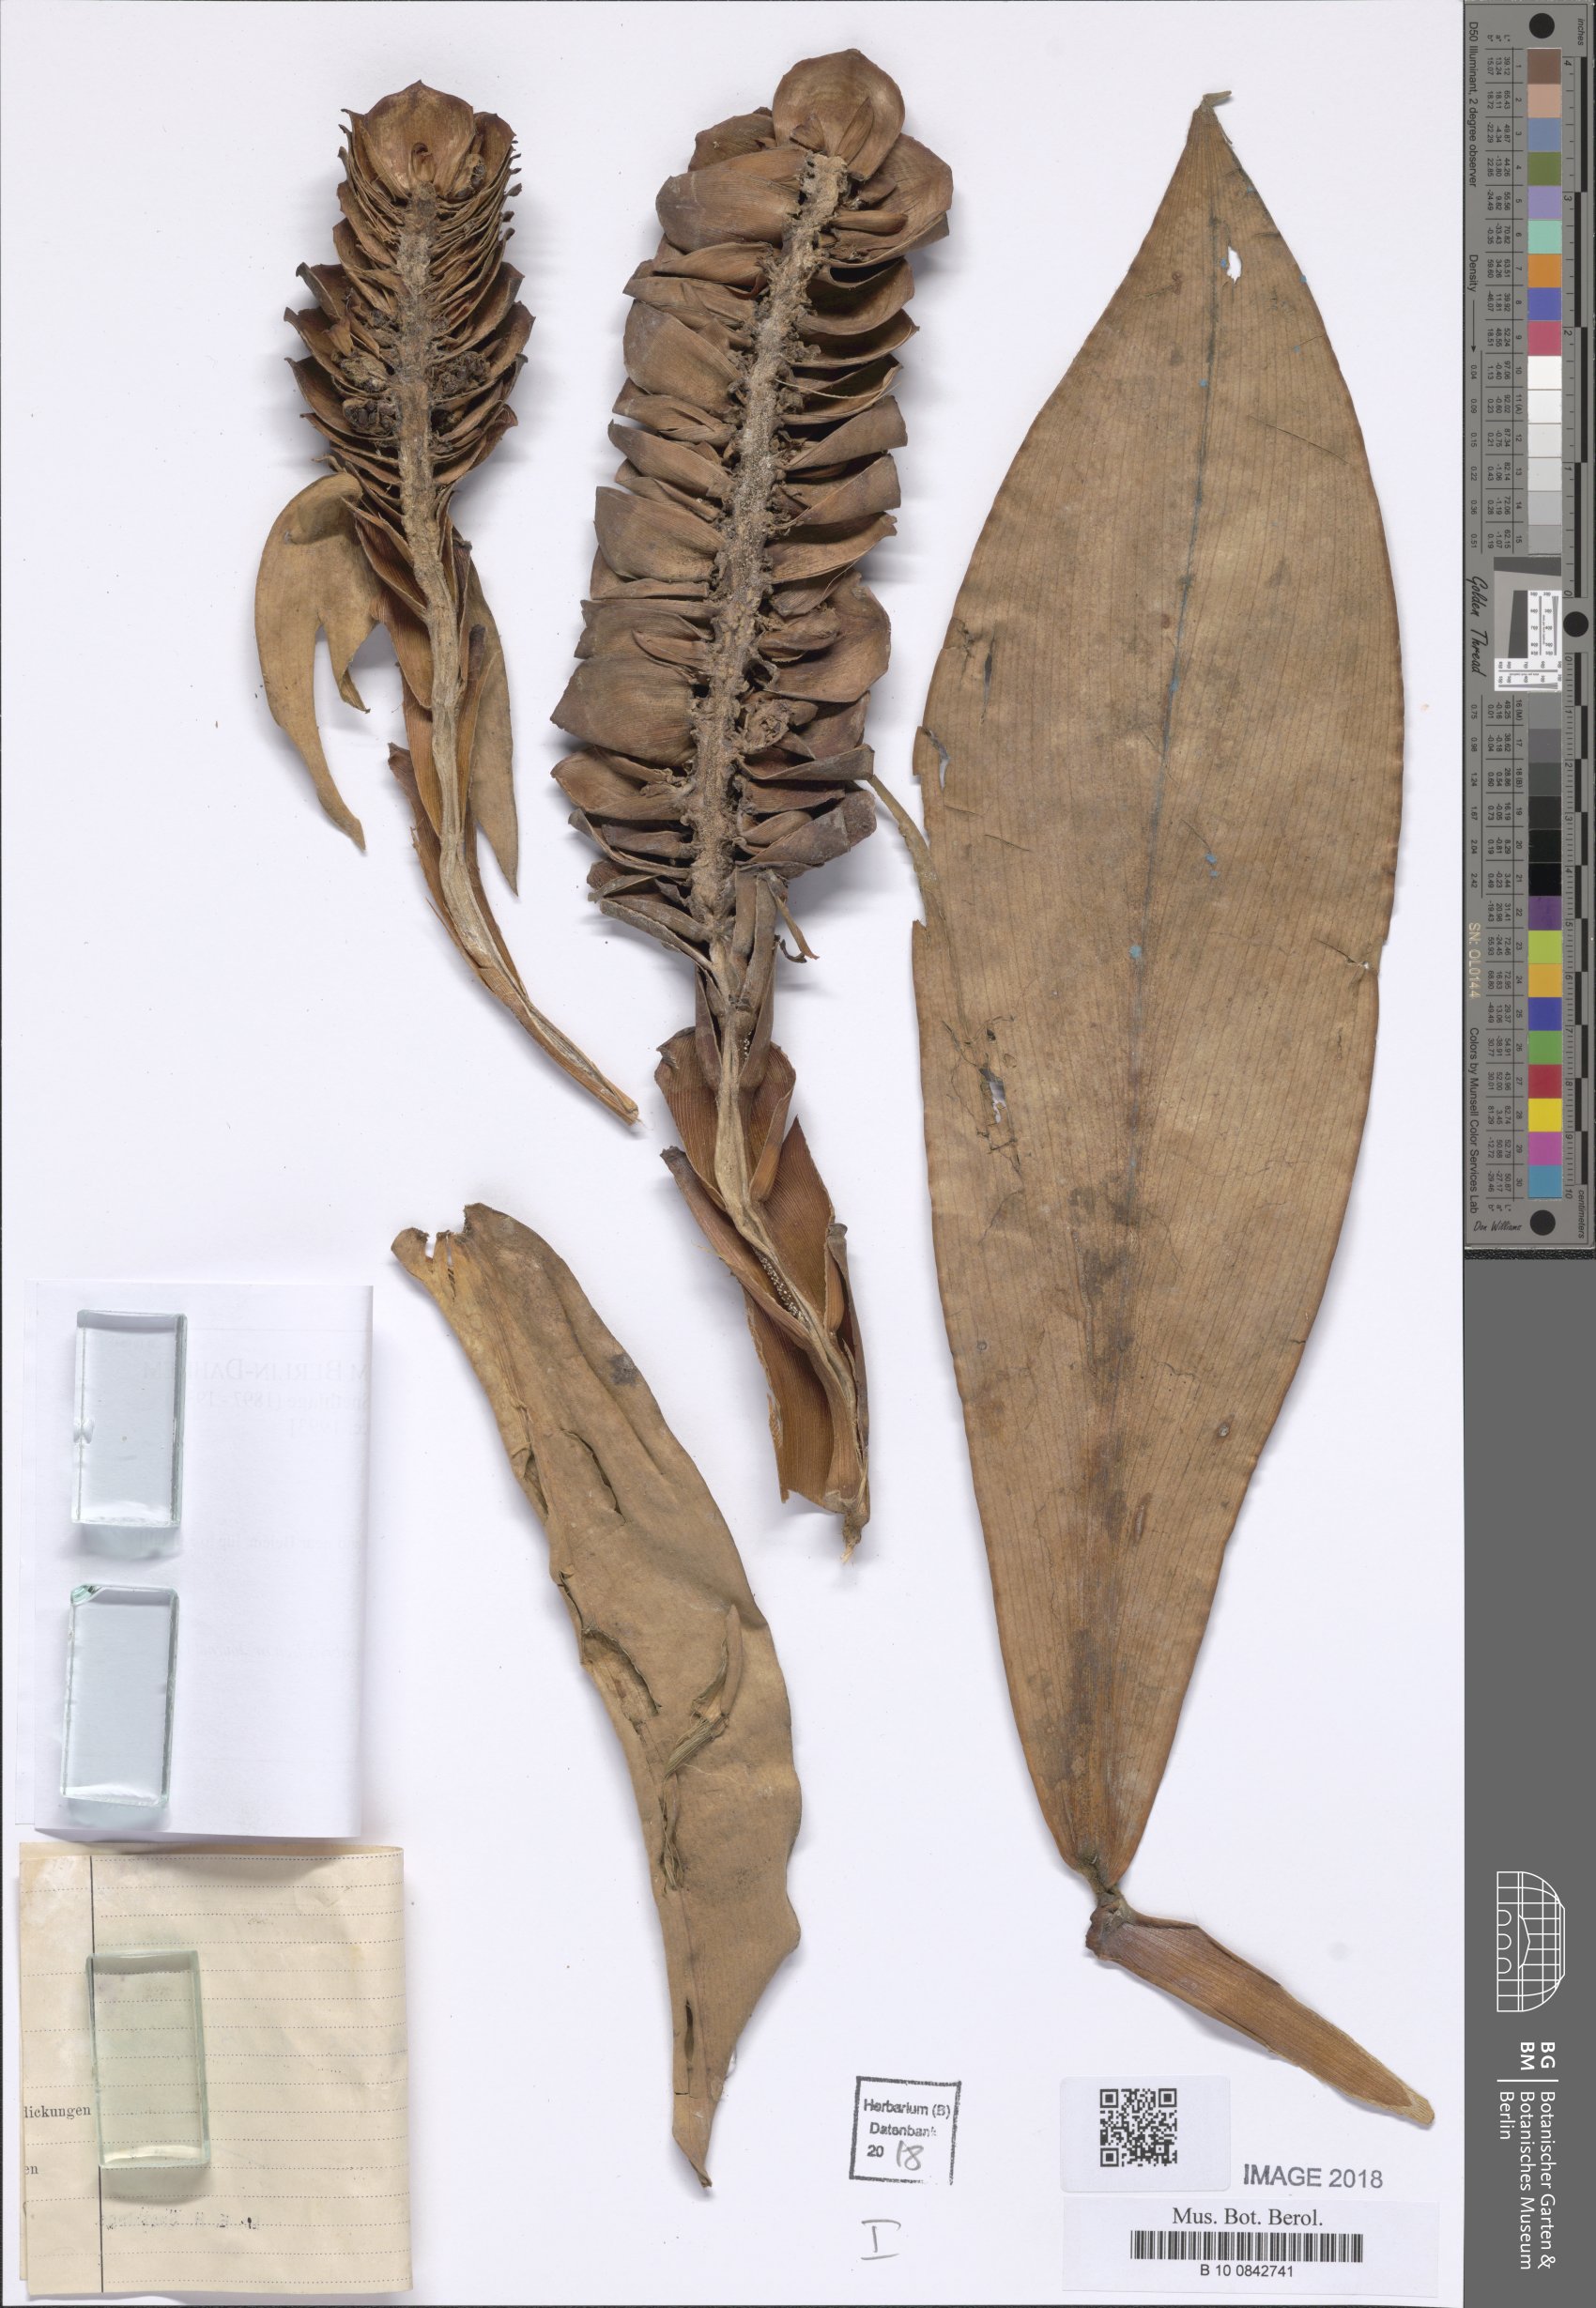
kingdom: Plantae
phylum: Tracheophyta
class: Liliopsida
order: Zingiberales
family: Costaceae
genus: Costus
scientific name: Costus
